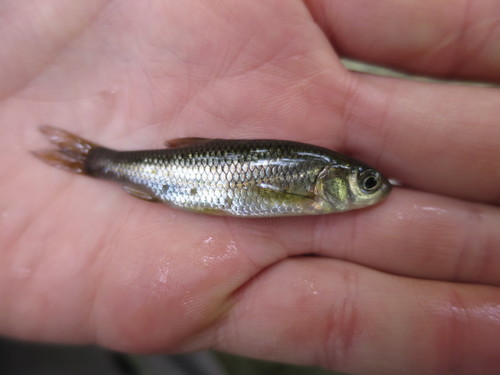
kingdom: Animalia
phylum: Chordata
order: Cypriniformes
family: Cyprinidae
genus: Squalius
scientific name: Squalius carolitertii
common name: Chub
